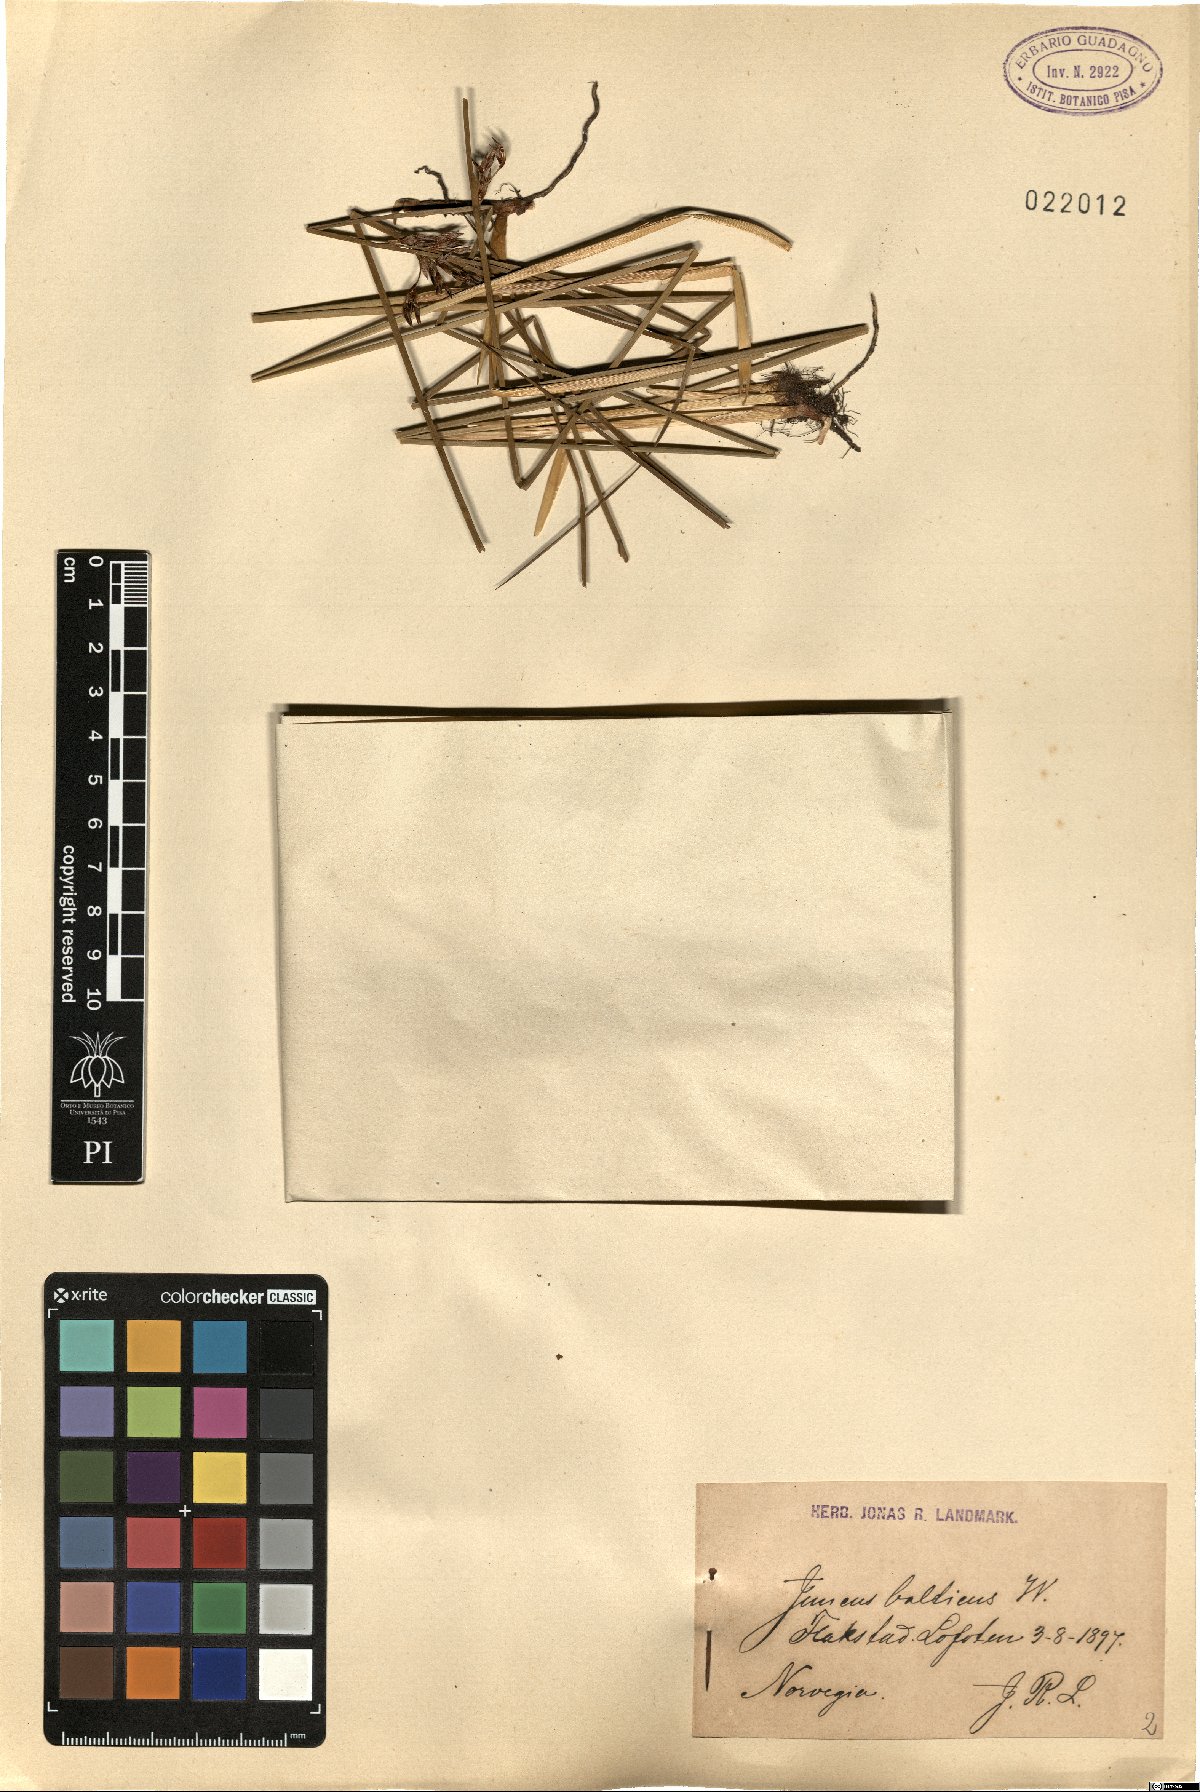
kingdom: Plantae
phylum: Tracheophyta
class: Liliopsida
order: Poales
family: Juncaceae
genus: Juncus
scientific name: Juncus balticus
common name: Baltic rush
